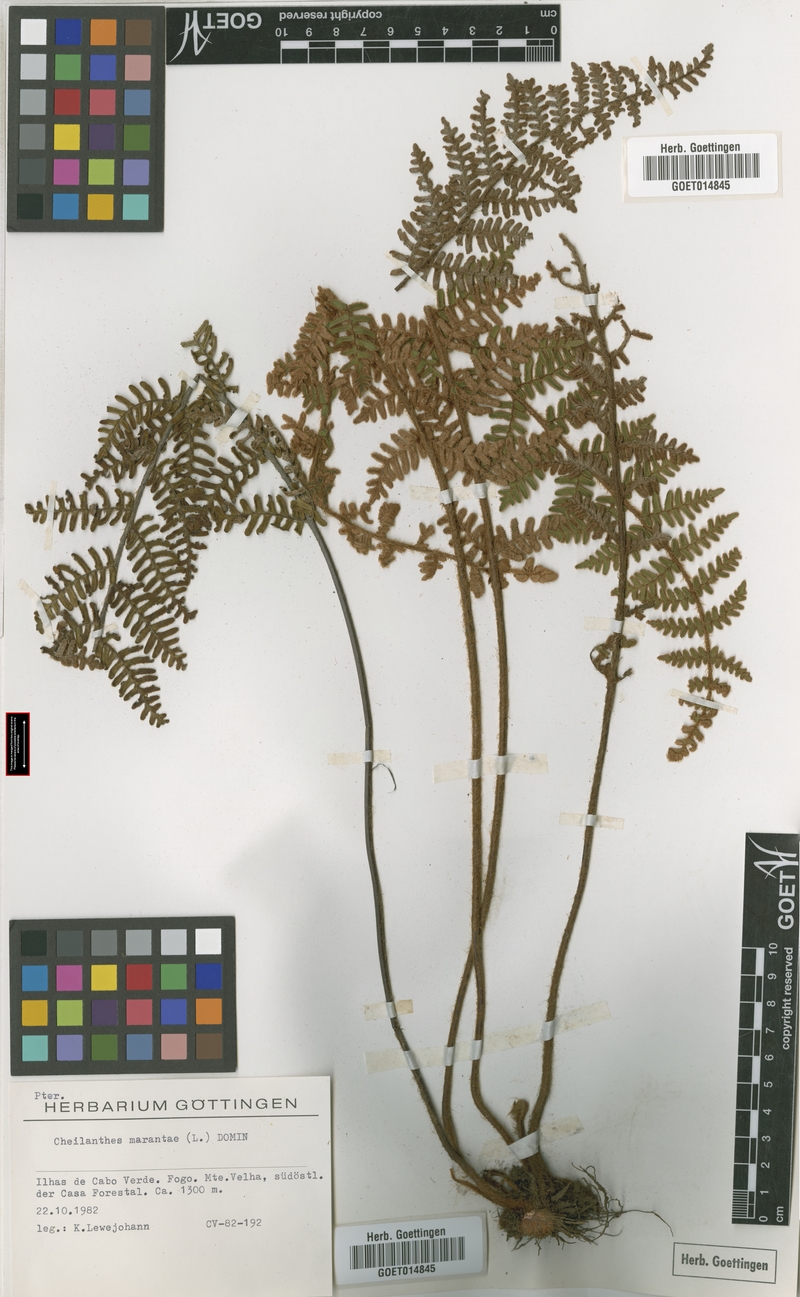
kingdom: Plantae
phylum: Tracheophyta
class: Polypodiopsida
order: Polypodiales
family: Pteridaceae
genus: Paragymnopteris
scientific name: Paragymnopteris marantae
